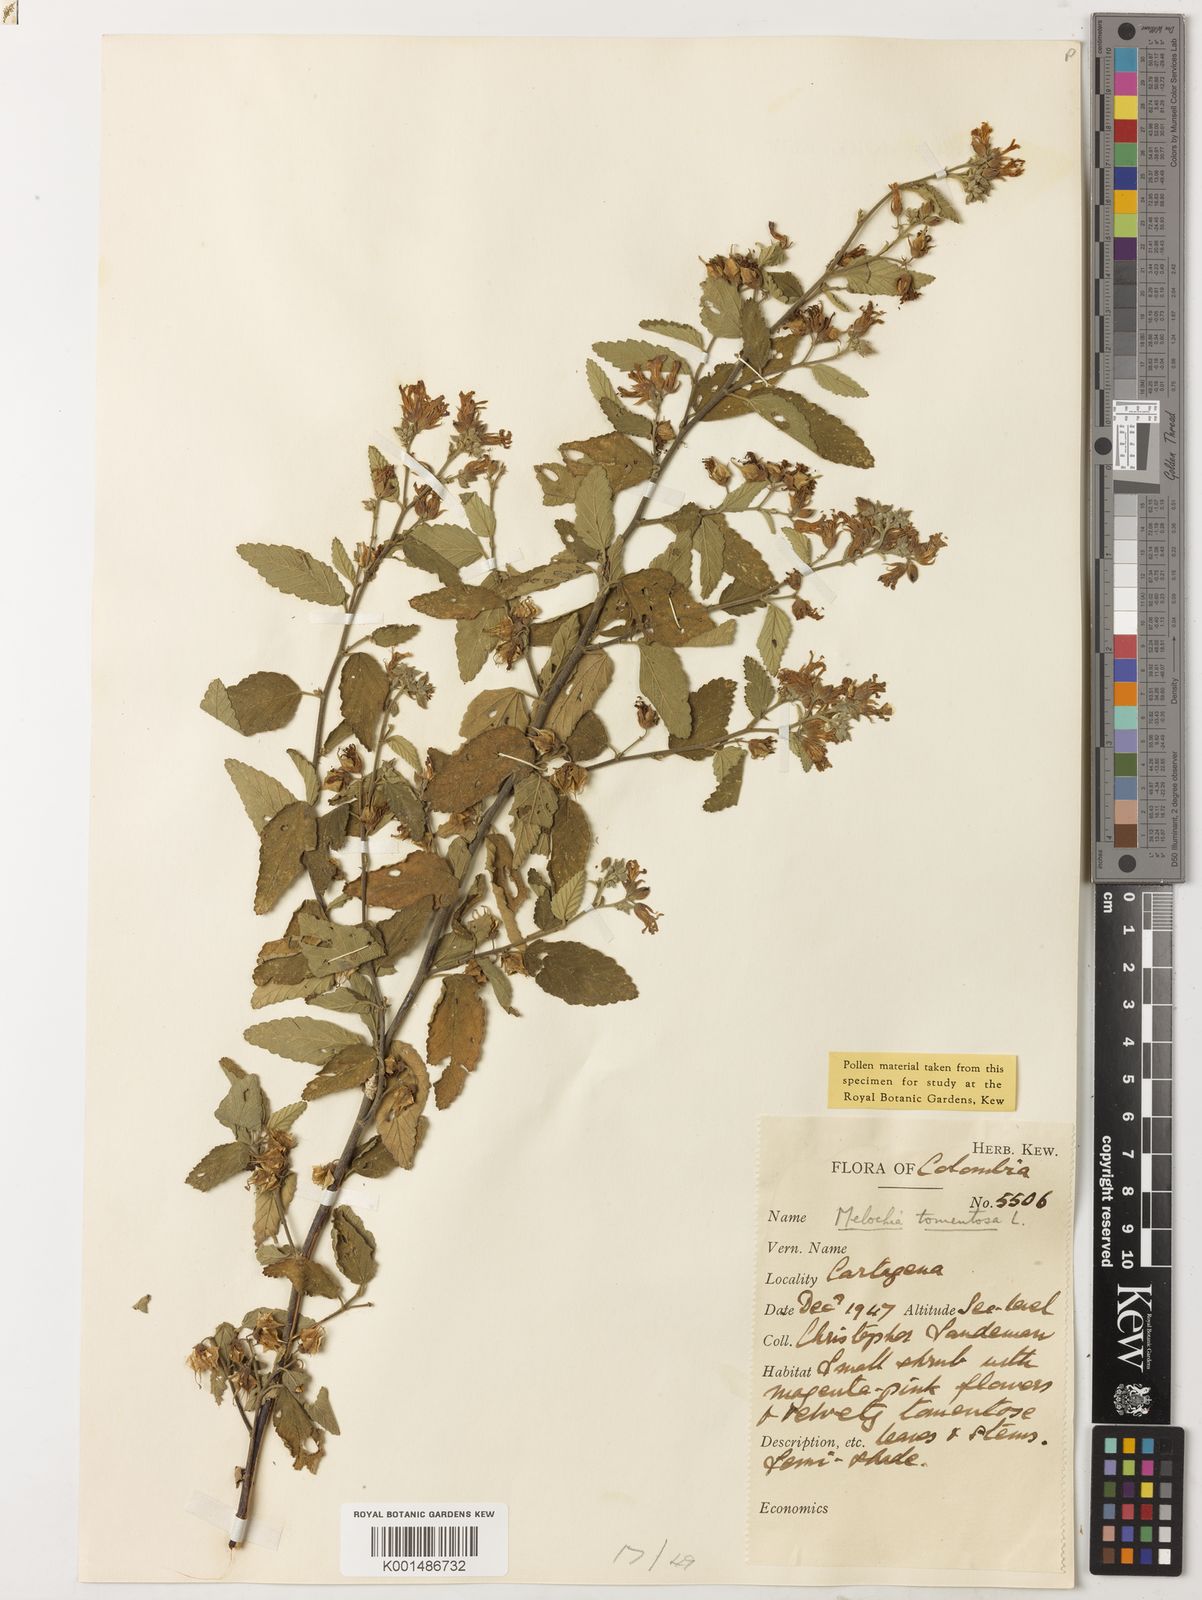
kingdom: Plantae
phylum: Tracheophyta
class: Magnoliopsida
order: Malvales
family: Malvaceae
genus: Melochia
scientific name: Melochia tomentosa
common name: Black torch
